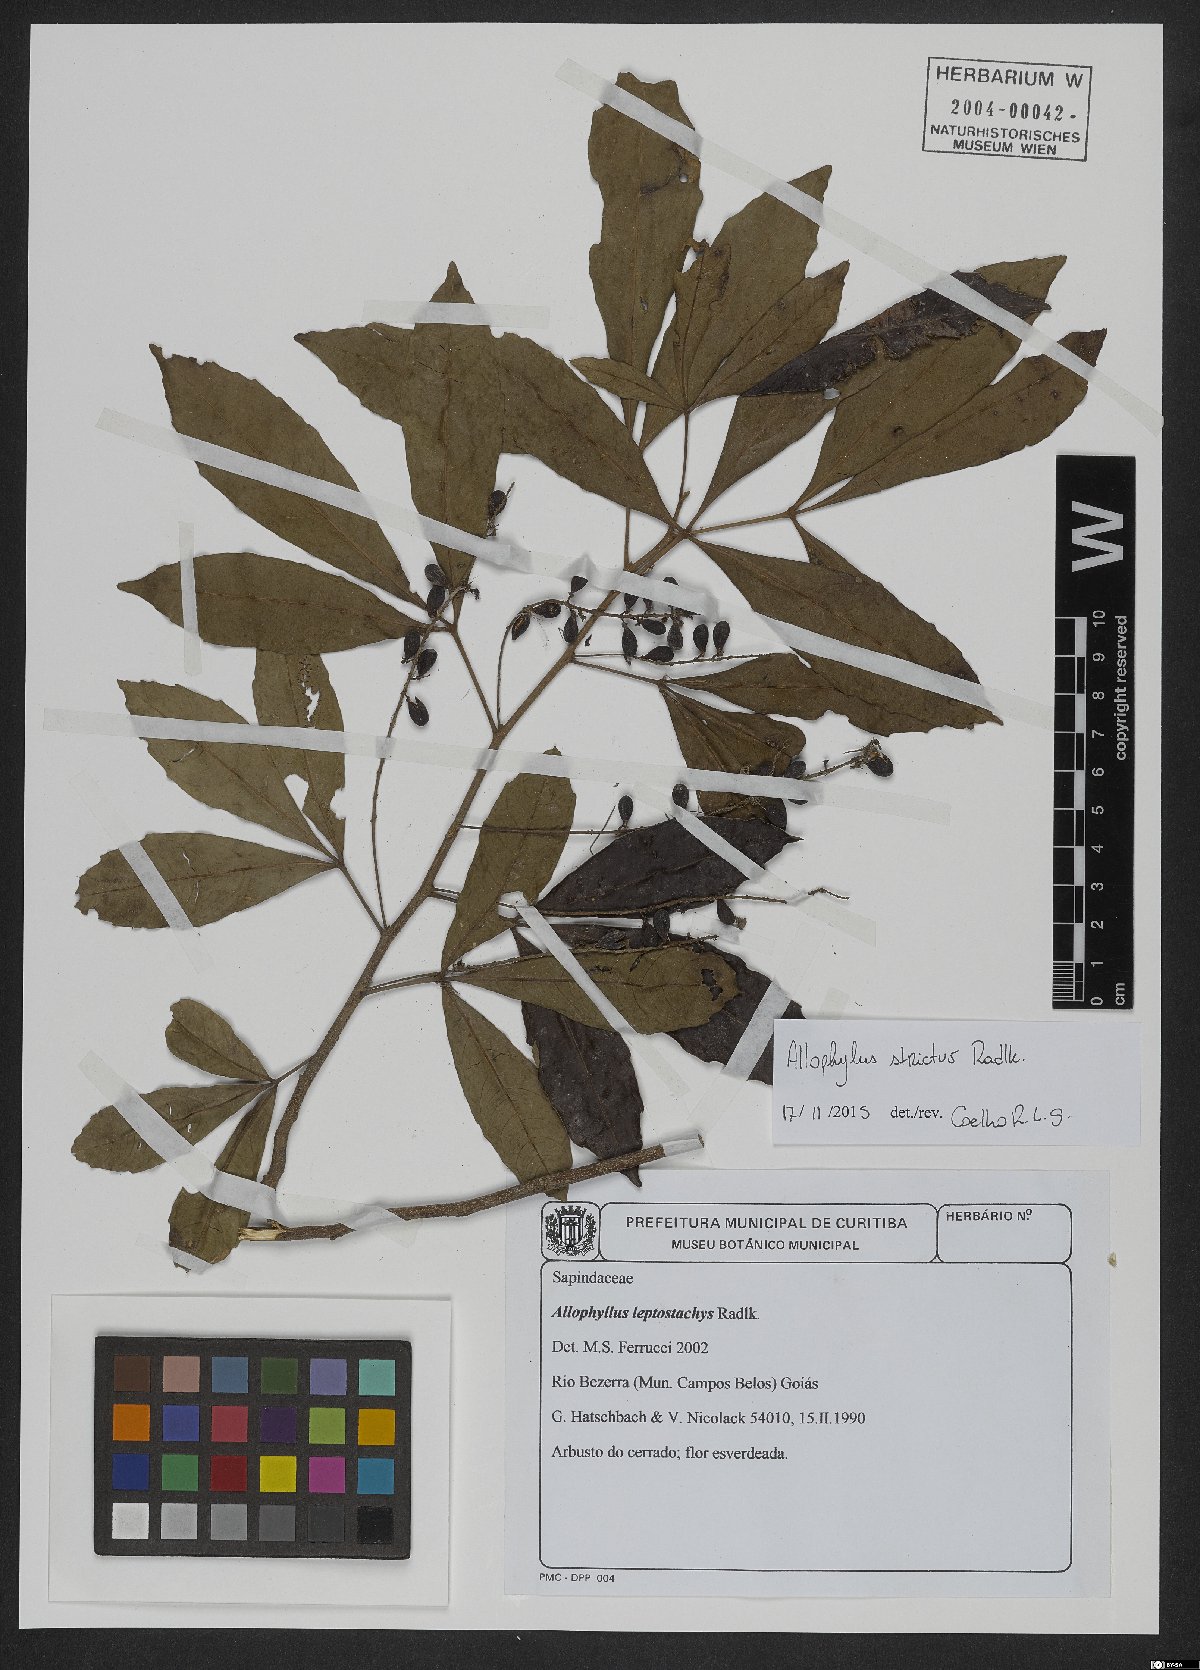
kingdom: Plantae
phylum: Tracheophyta
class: Magnoliopsida
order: Sapindales
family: Sapindaceae
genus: Allophylus
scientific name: Allophylus strictus
